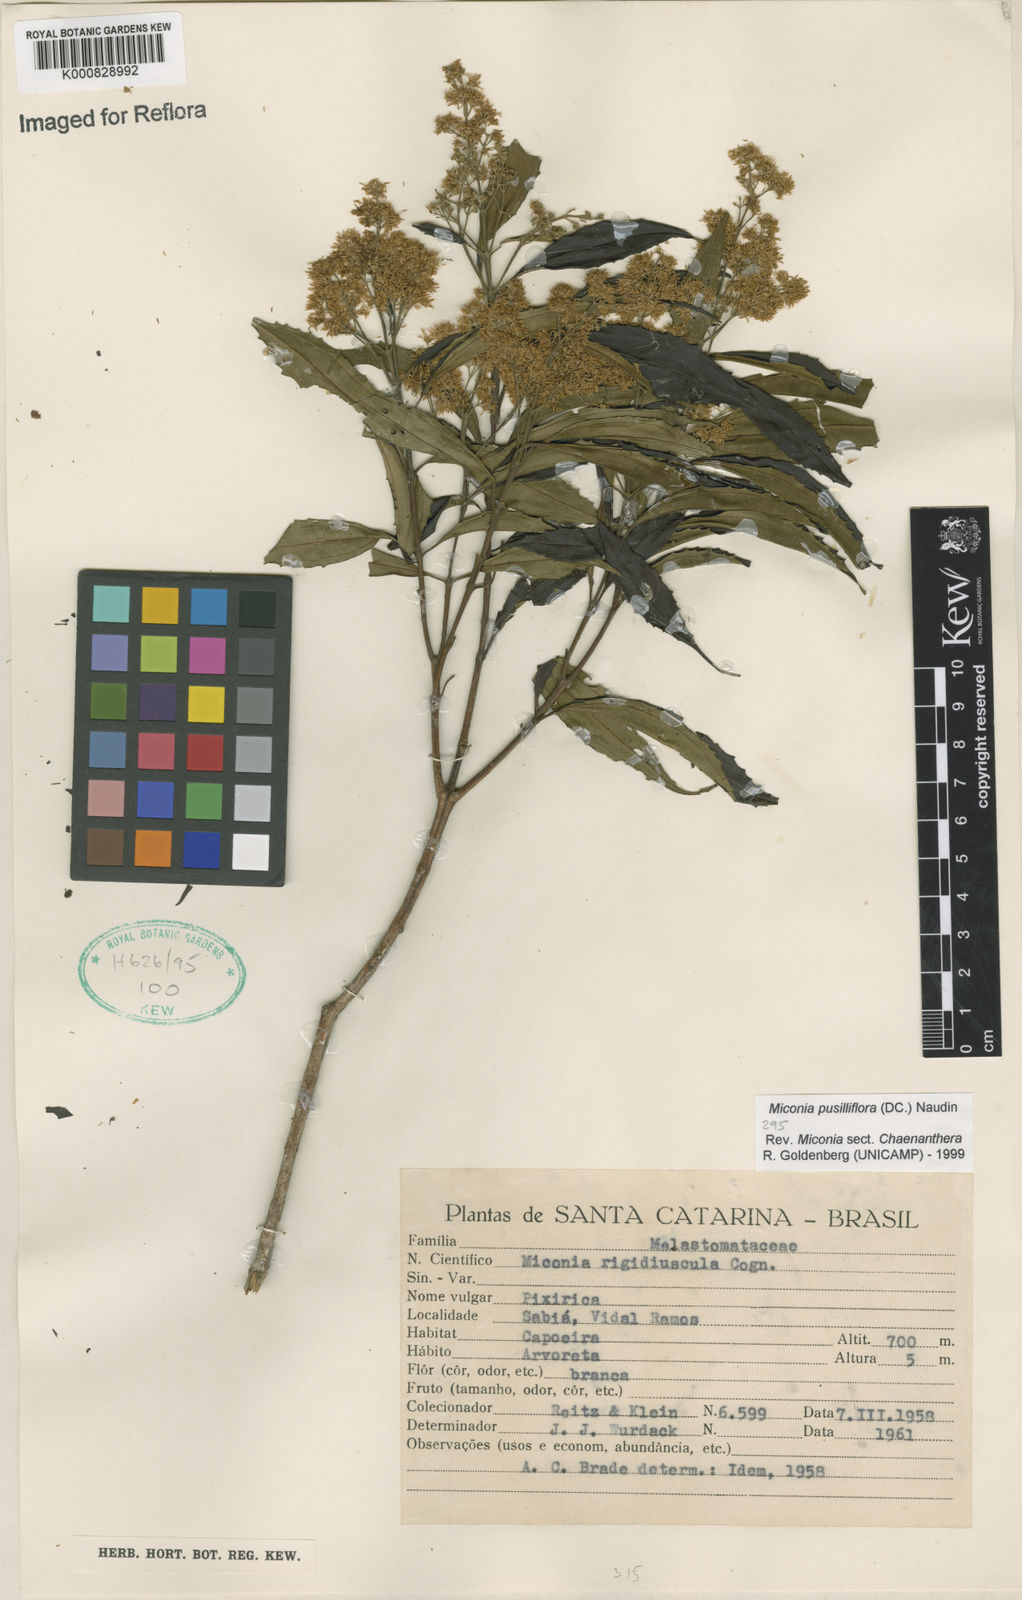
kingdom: Plantae
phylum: Tracheophyta
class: Magnoliopsida
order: Myrtales
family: Melastomataceae
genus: Miconia
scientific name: Miconia pusilliflora
